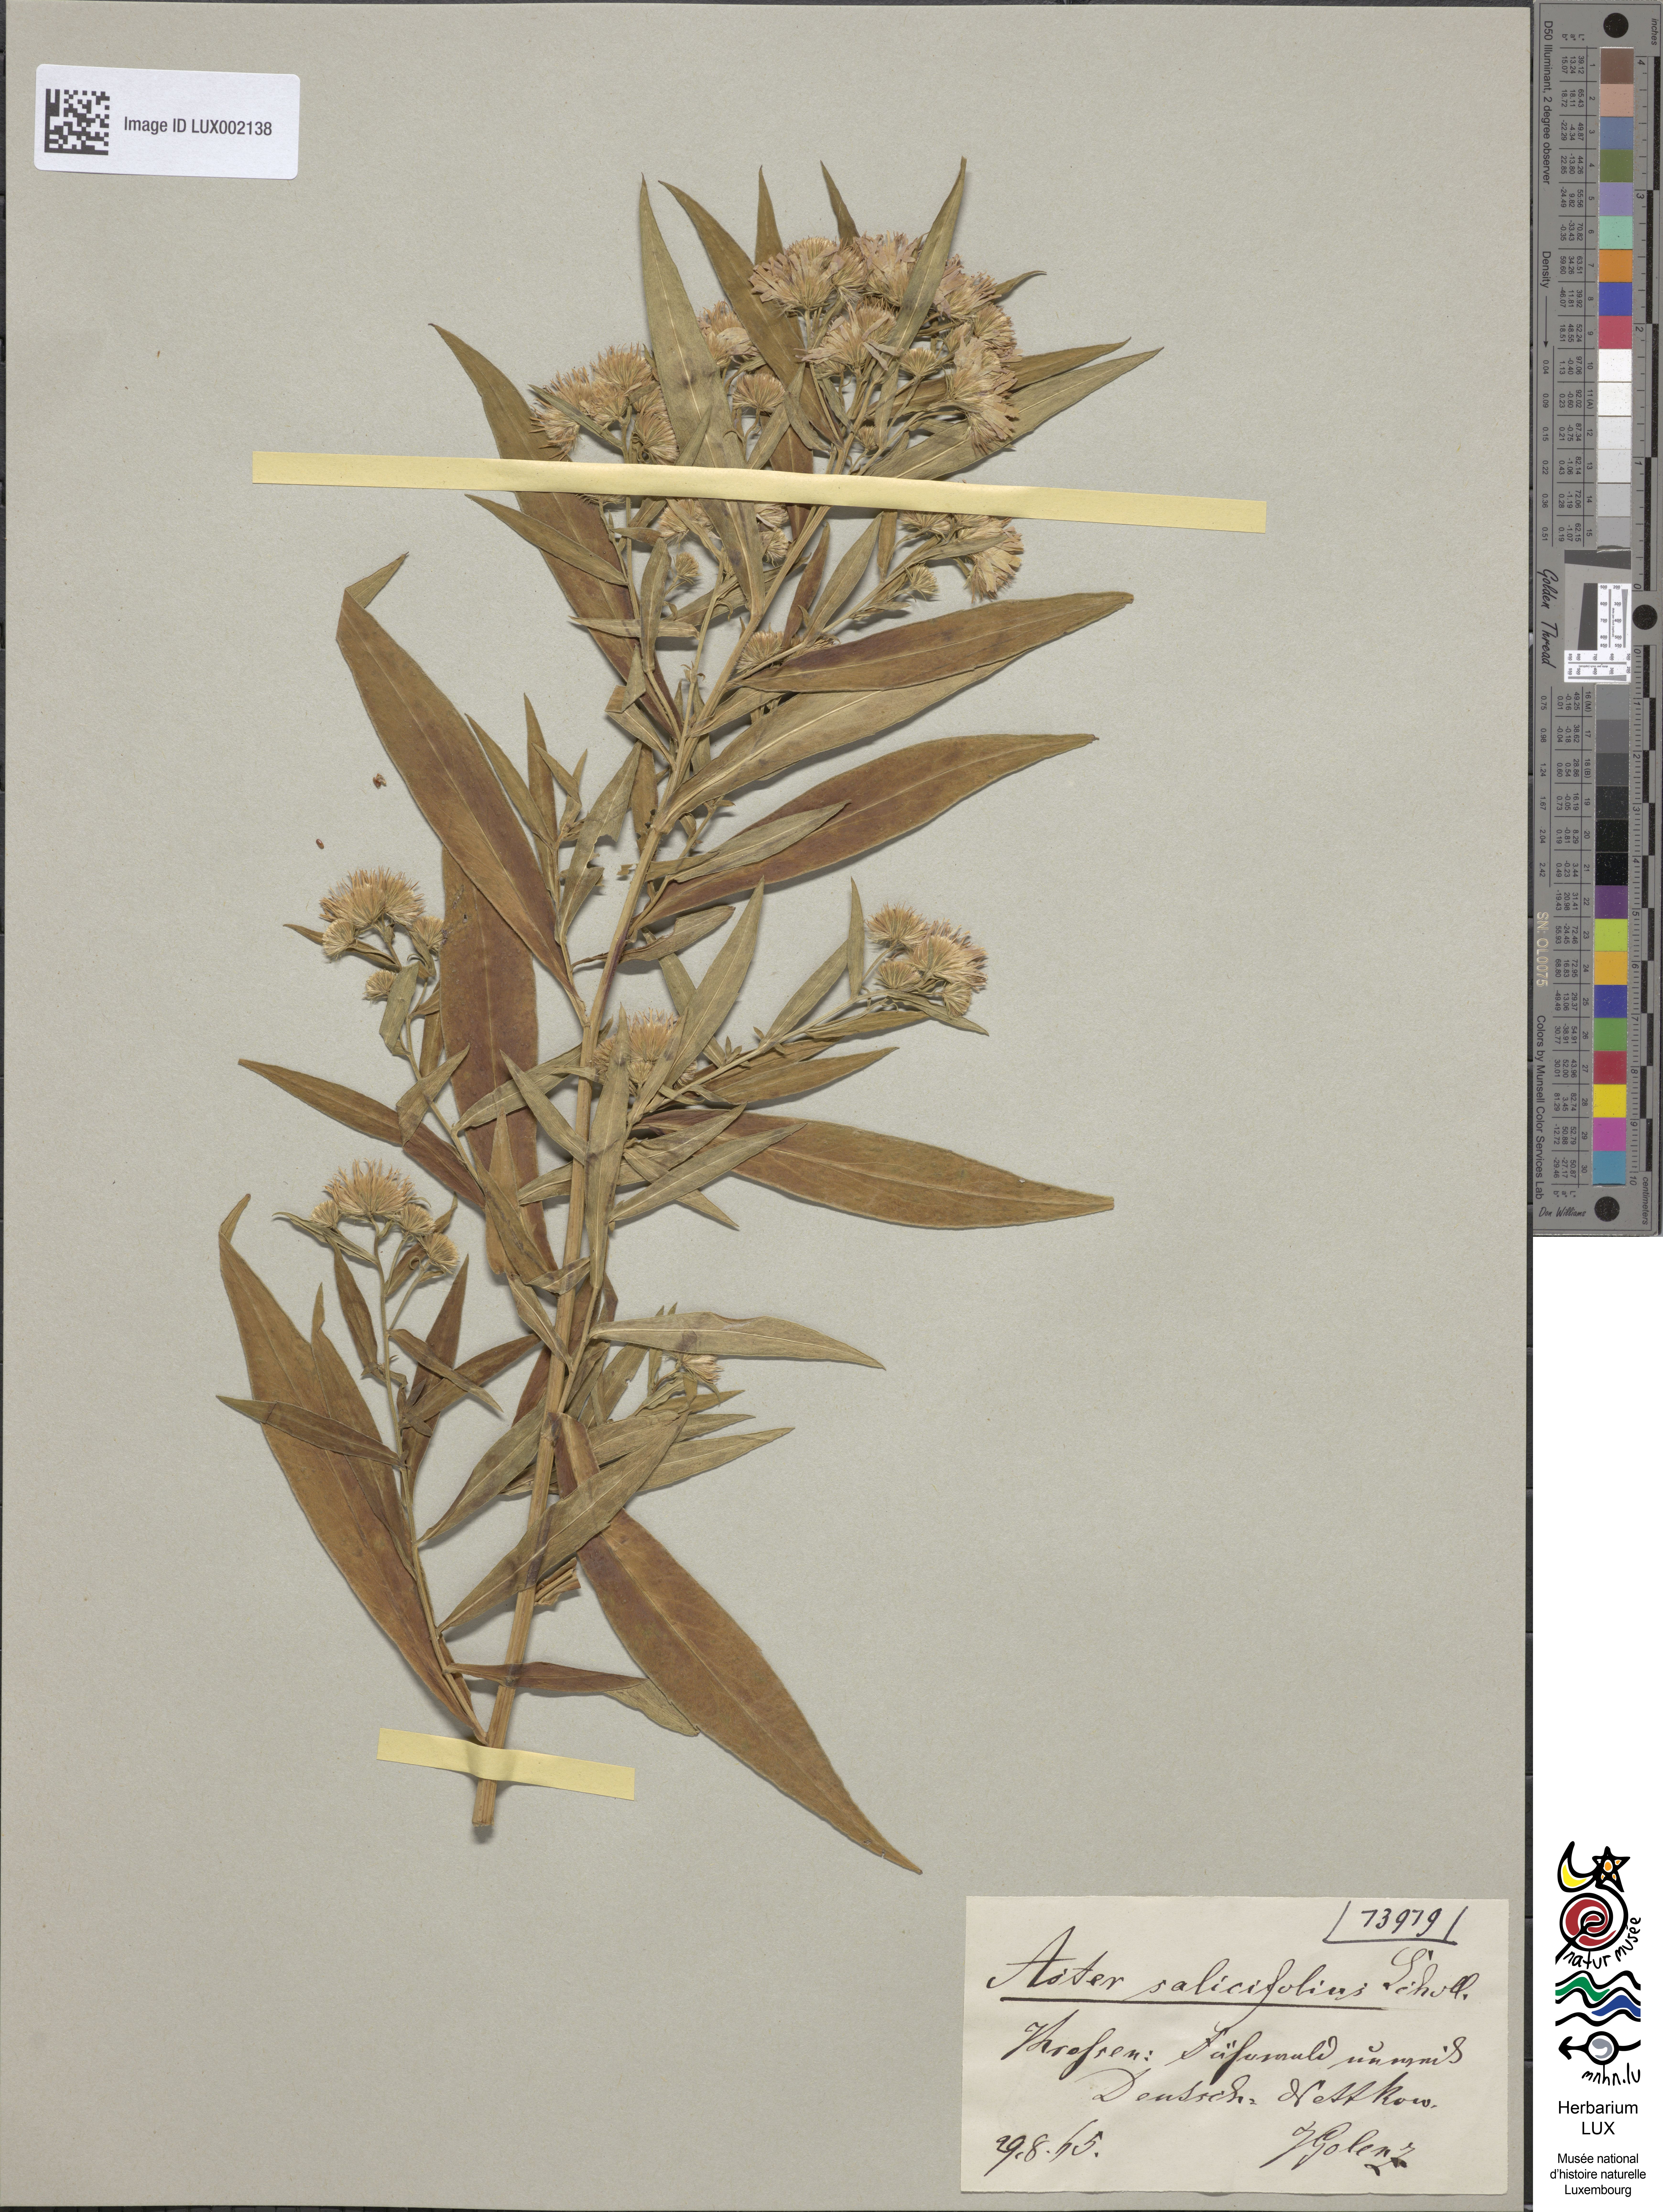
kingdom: Plantae
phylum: Tracheophyta
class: Magnoliopsida
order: Asterales
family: Asteraceae
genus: Symphyotrichum
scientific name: Symphyotrichum salignum
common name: Common michaelmas daisy
